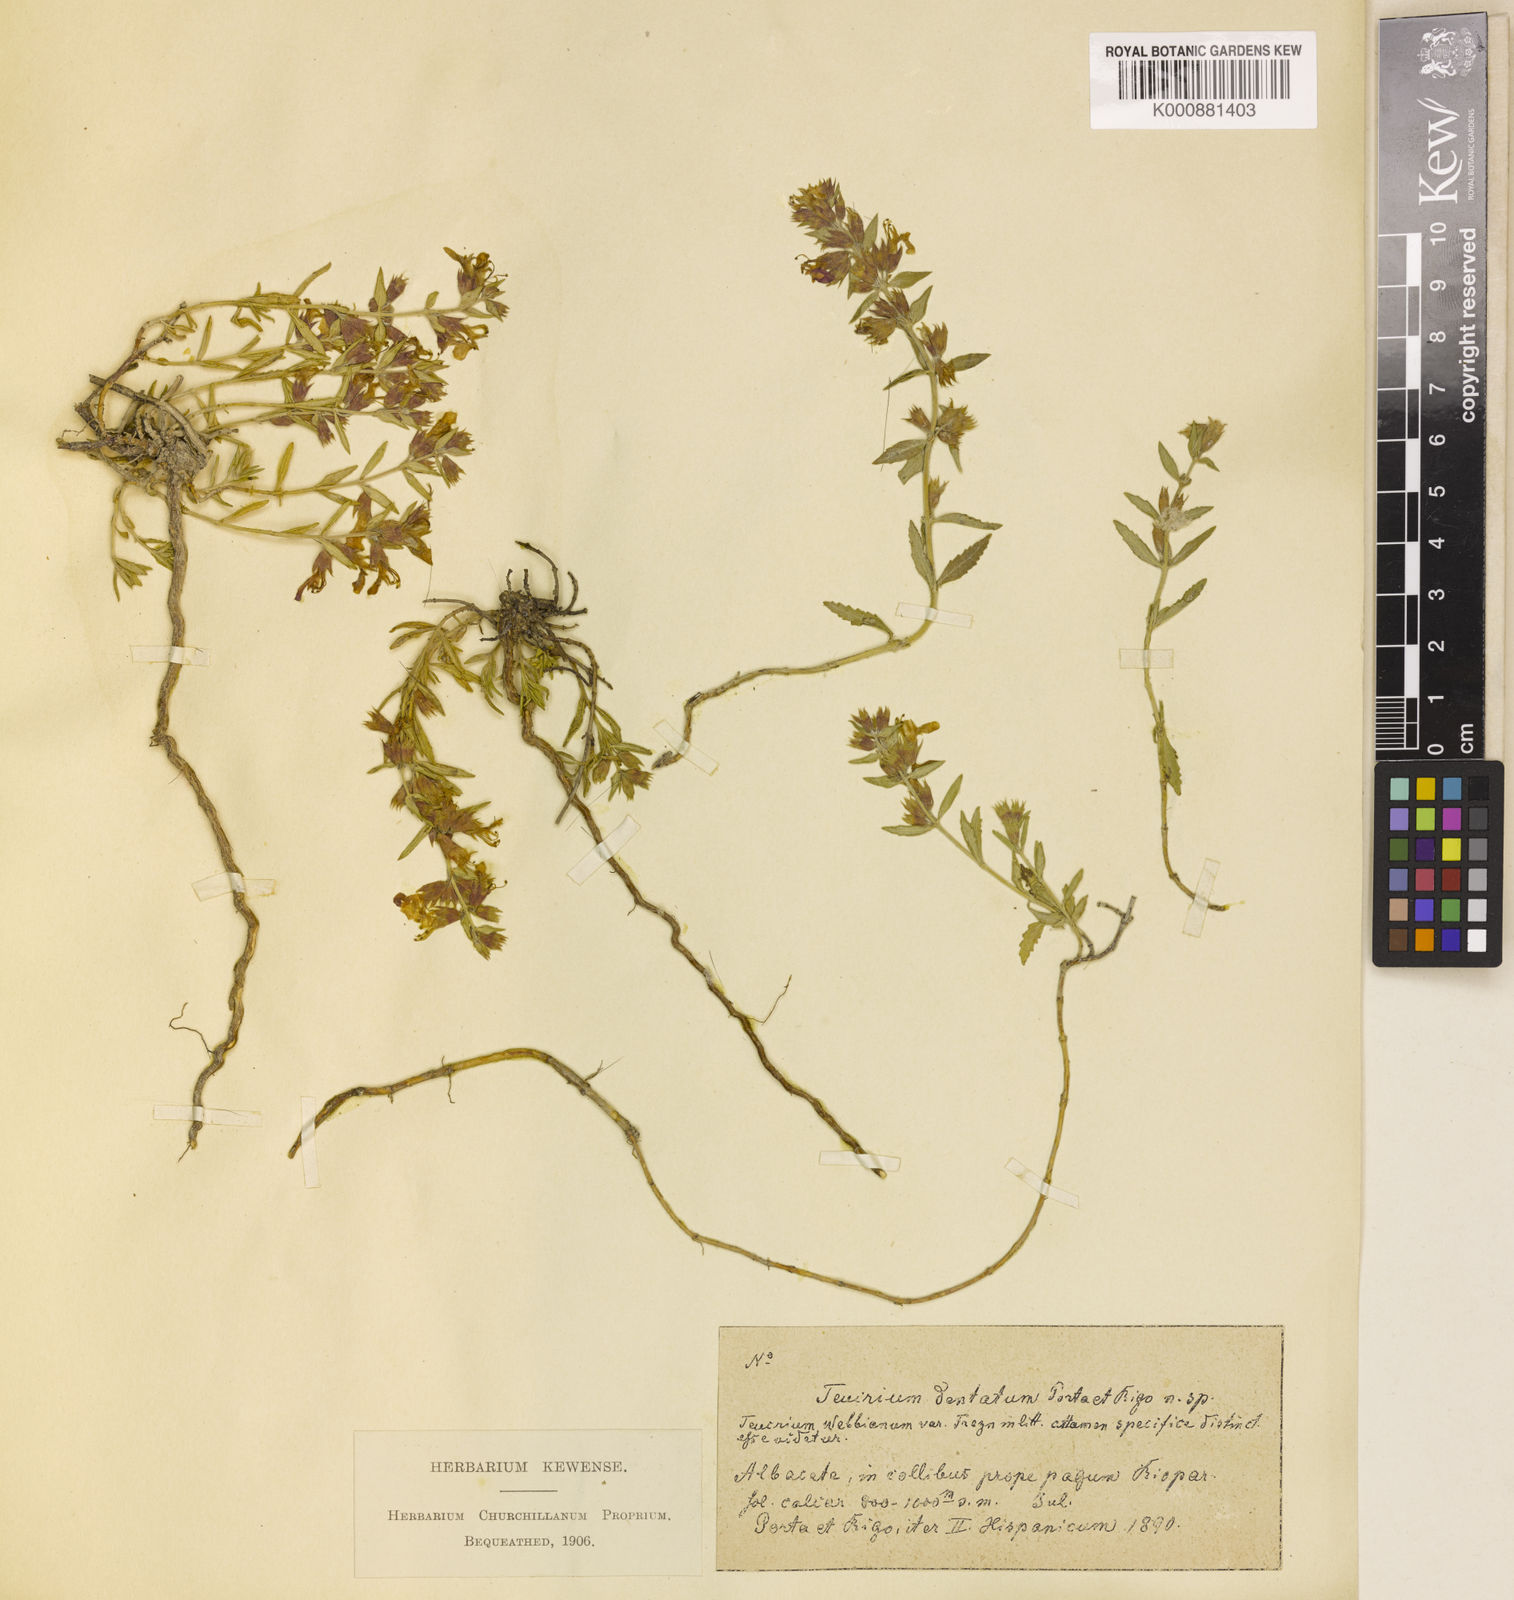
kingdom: Plantae
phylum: Tracheophyta
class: Magnoliopsida
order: Lamiales
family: Lamiaceae
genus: Teucrium
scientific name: Teucrium webbianum
